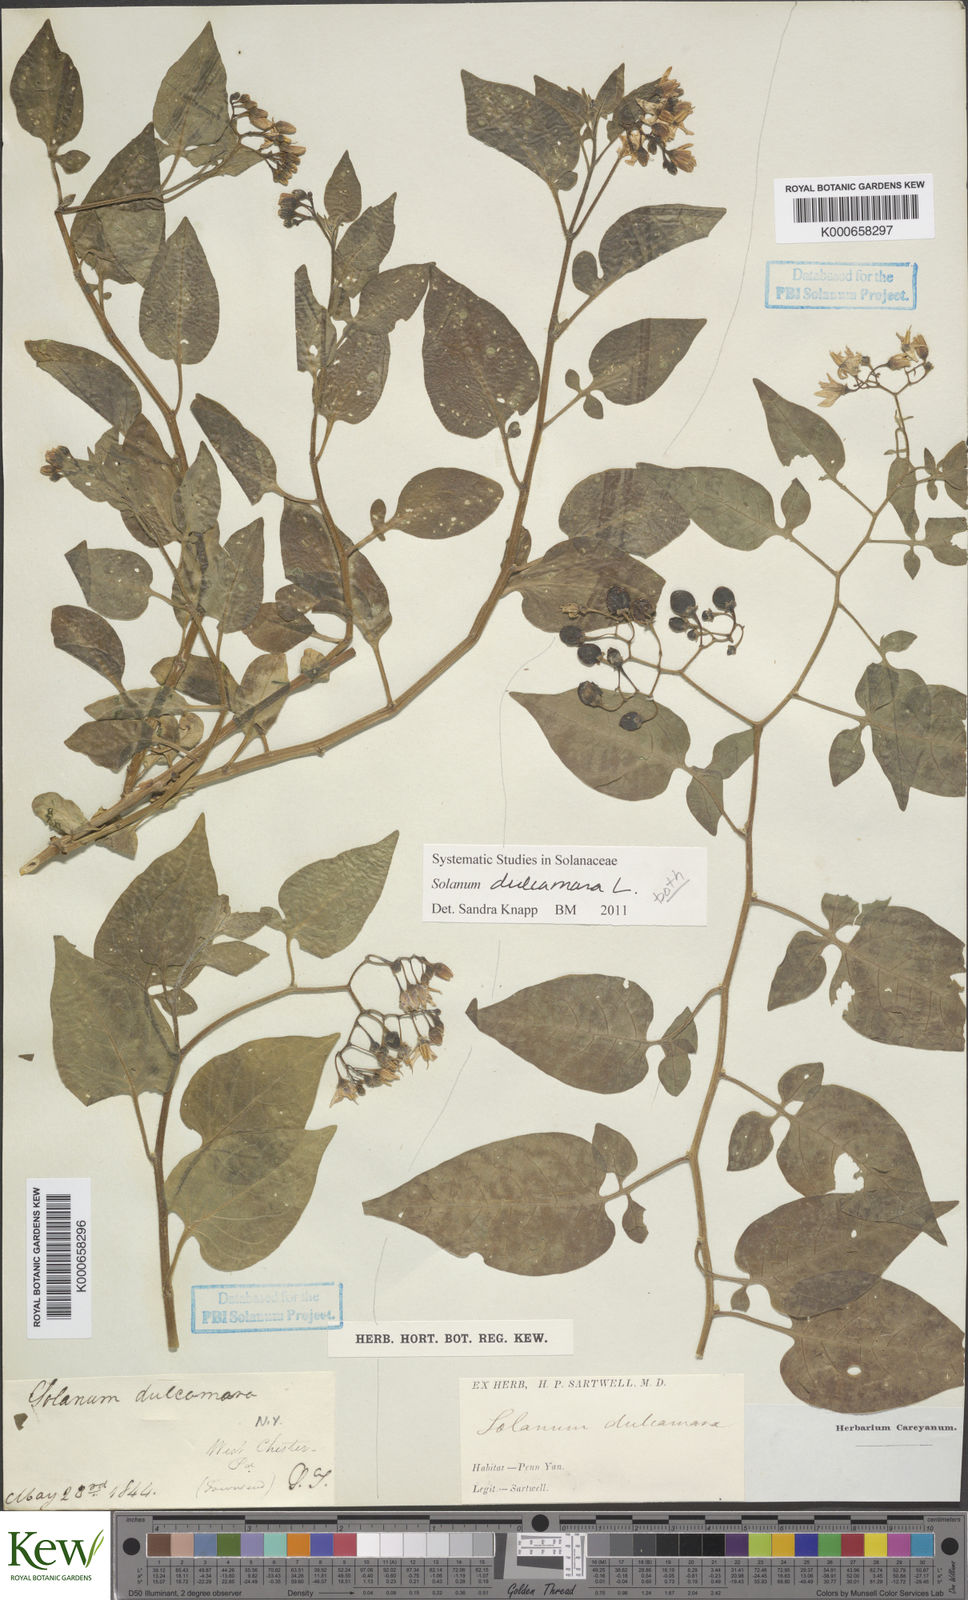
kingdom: Plantae
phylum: Tracheophyta
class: Magnoliopsida
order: Solanales
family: Solanaceae
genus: Solanum
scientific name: Solanum dulcamara
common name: Climbing nightshade
